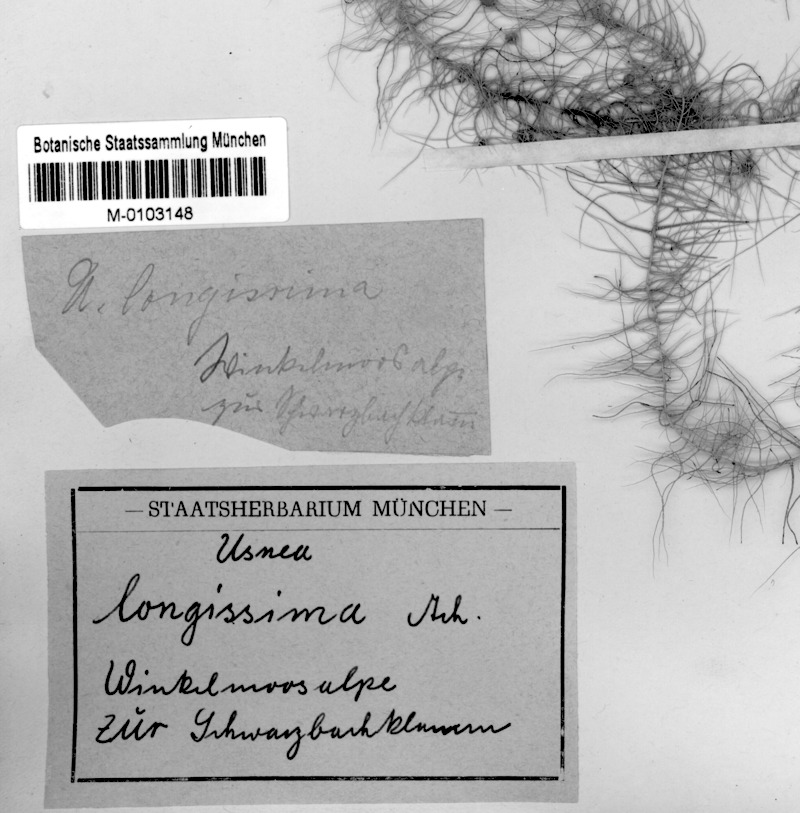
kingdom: Fungi
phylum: Ascomycota
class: Lecanoromycetes
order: Lecanorales
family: Parmeliaceae
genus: Dolichousnea
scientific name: Dolichousnea longissima
